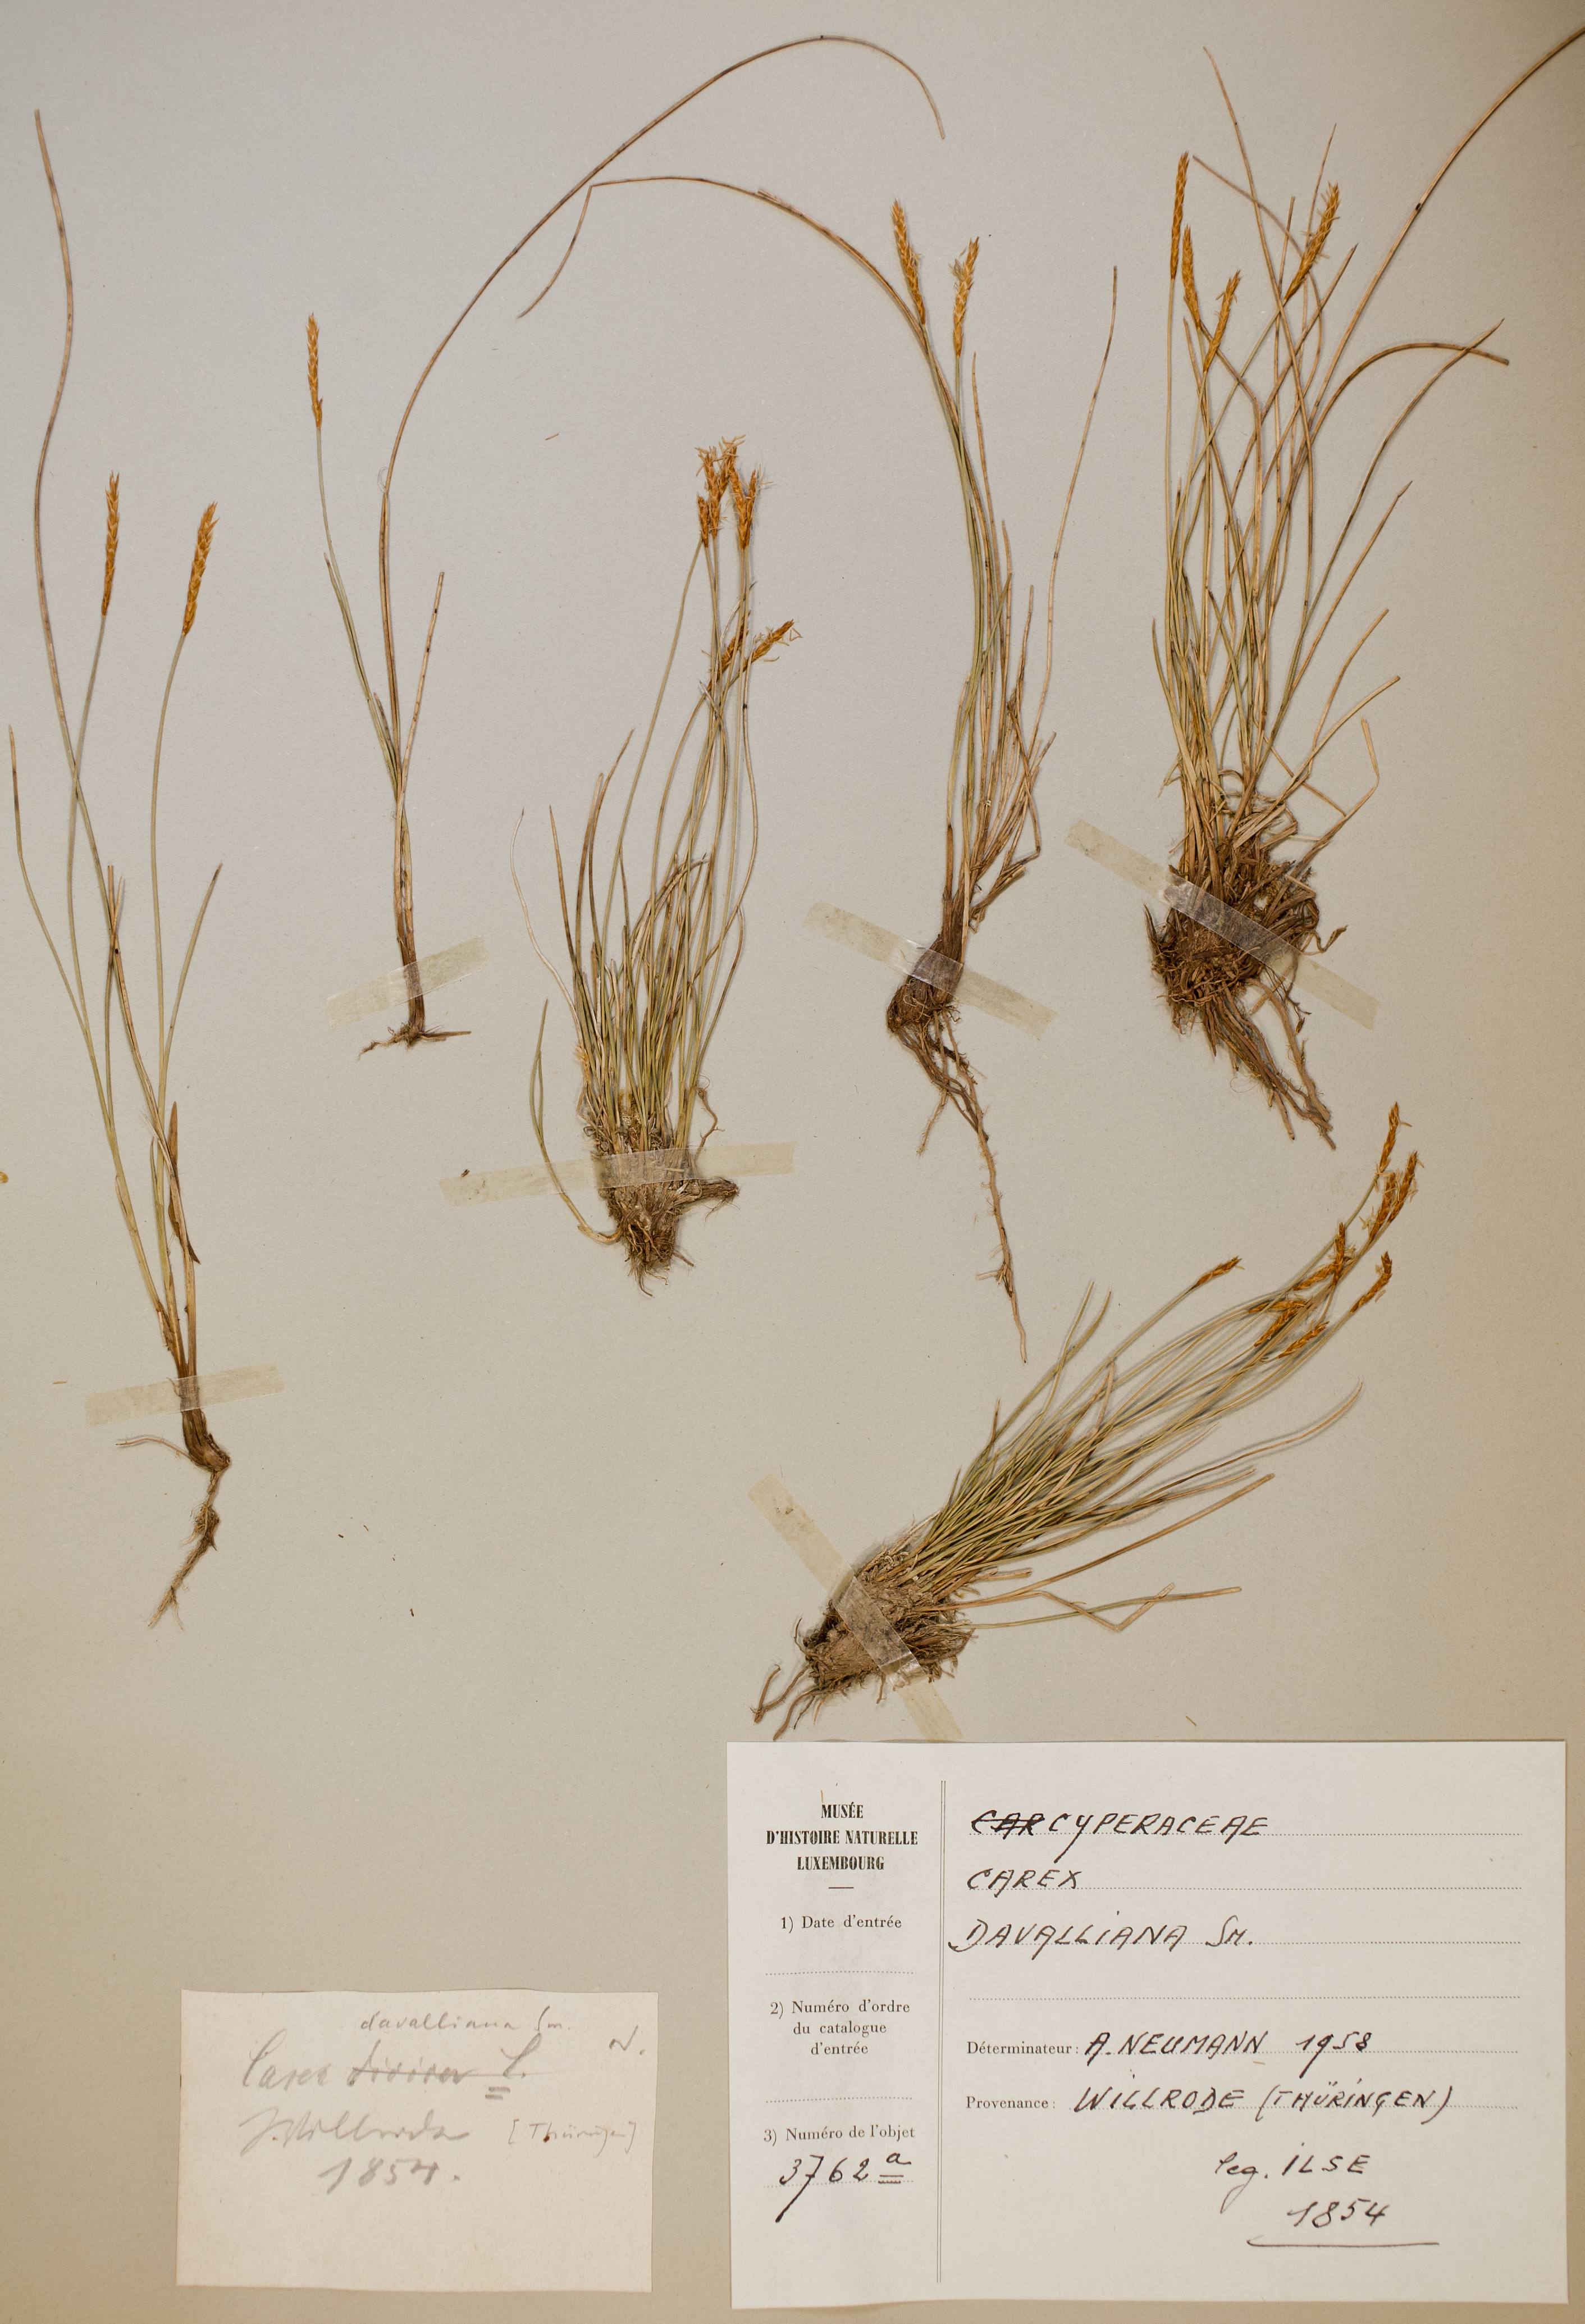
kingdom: Plantae
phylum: Tracheophyta
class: Liliopsida
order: Poales
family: Cyperaceae
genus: Carex
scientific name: Carex davalliana
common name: Davall's sedge
